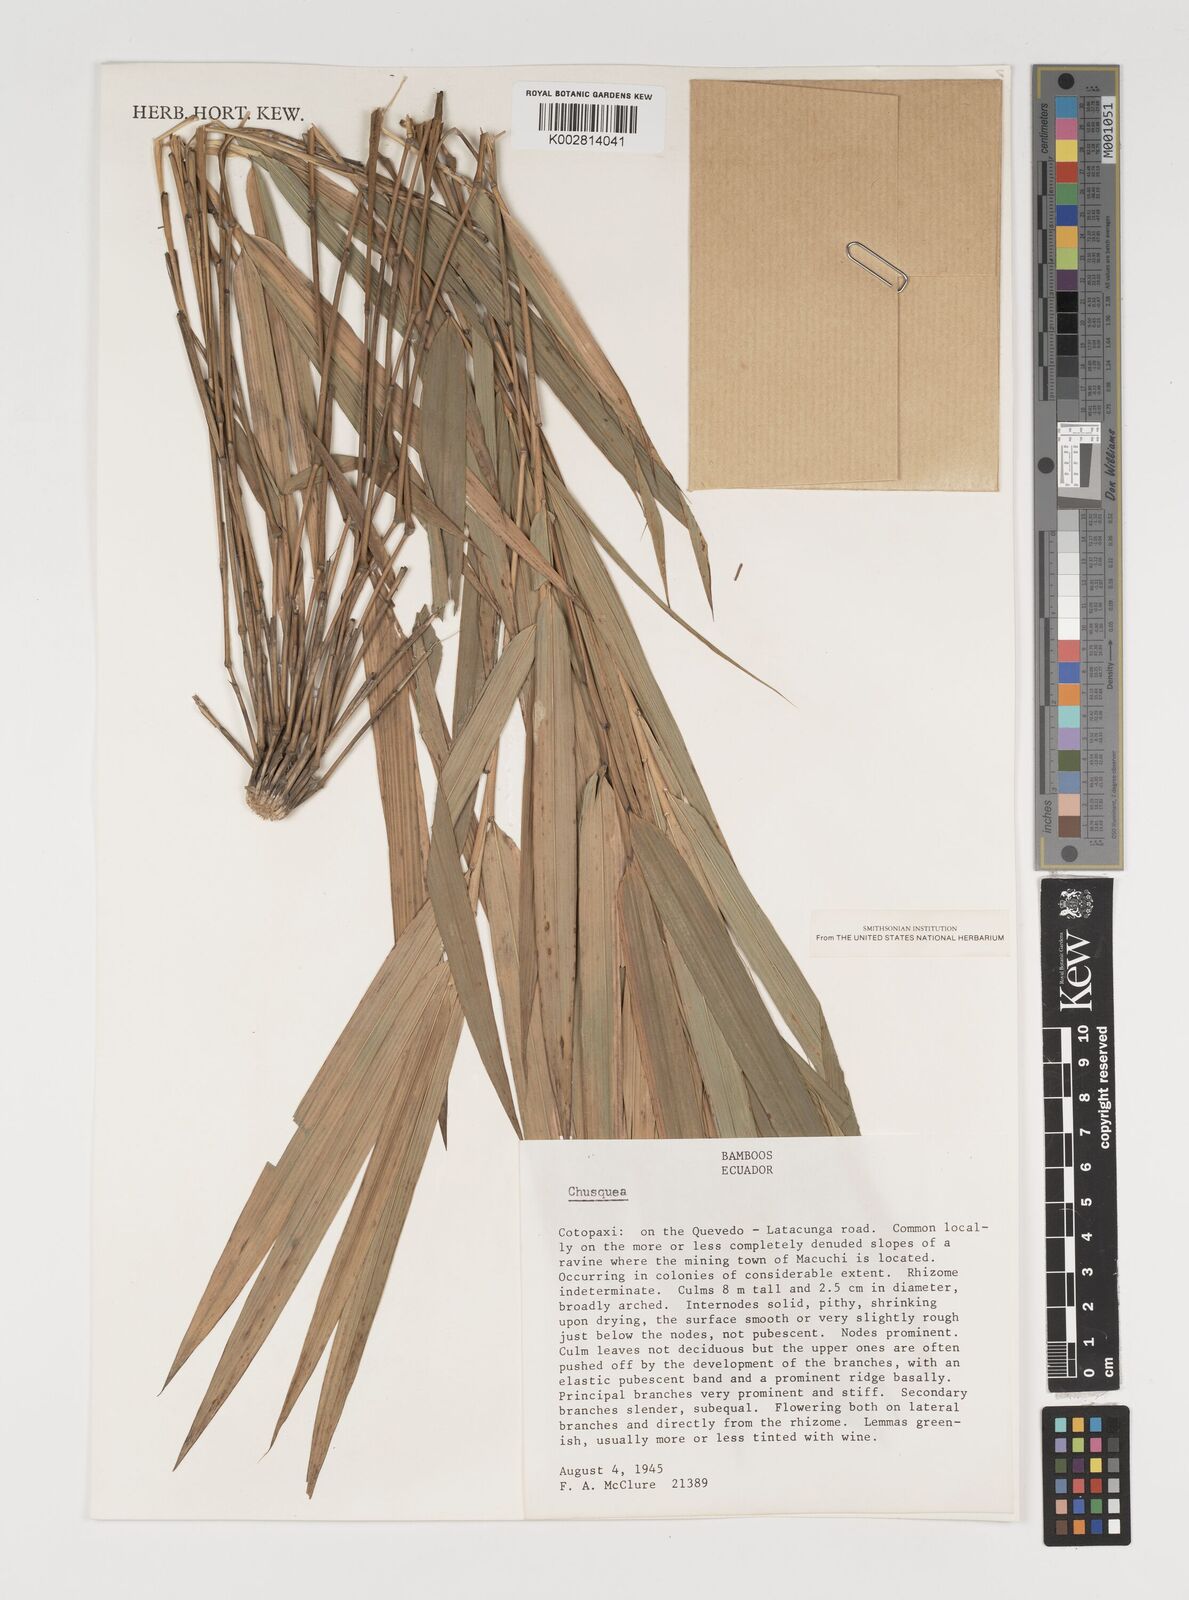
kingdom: Plantae
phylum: Tracheophyta
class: Liliopsida
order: Poales
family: Poaceae
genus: Chusquea
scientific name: Chusquea
